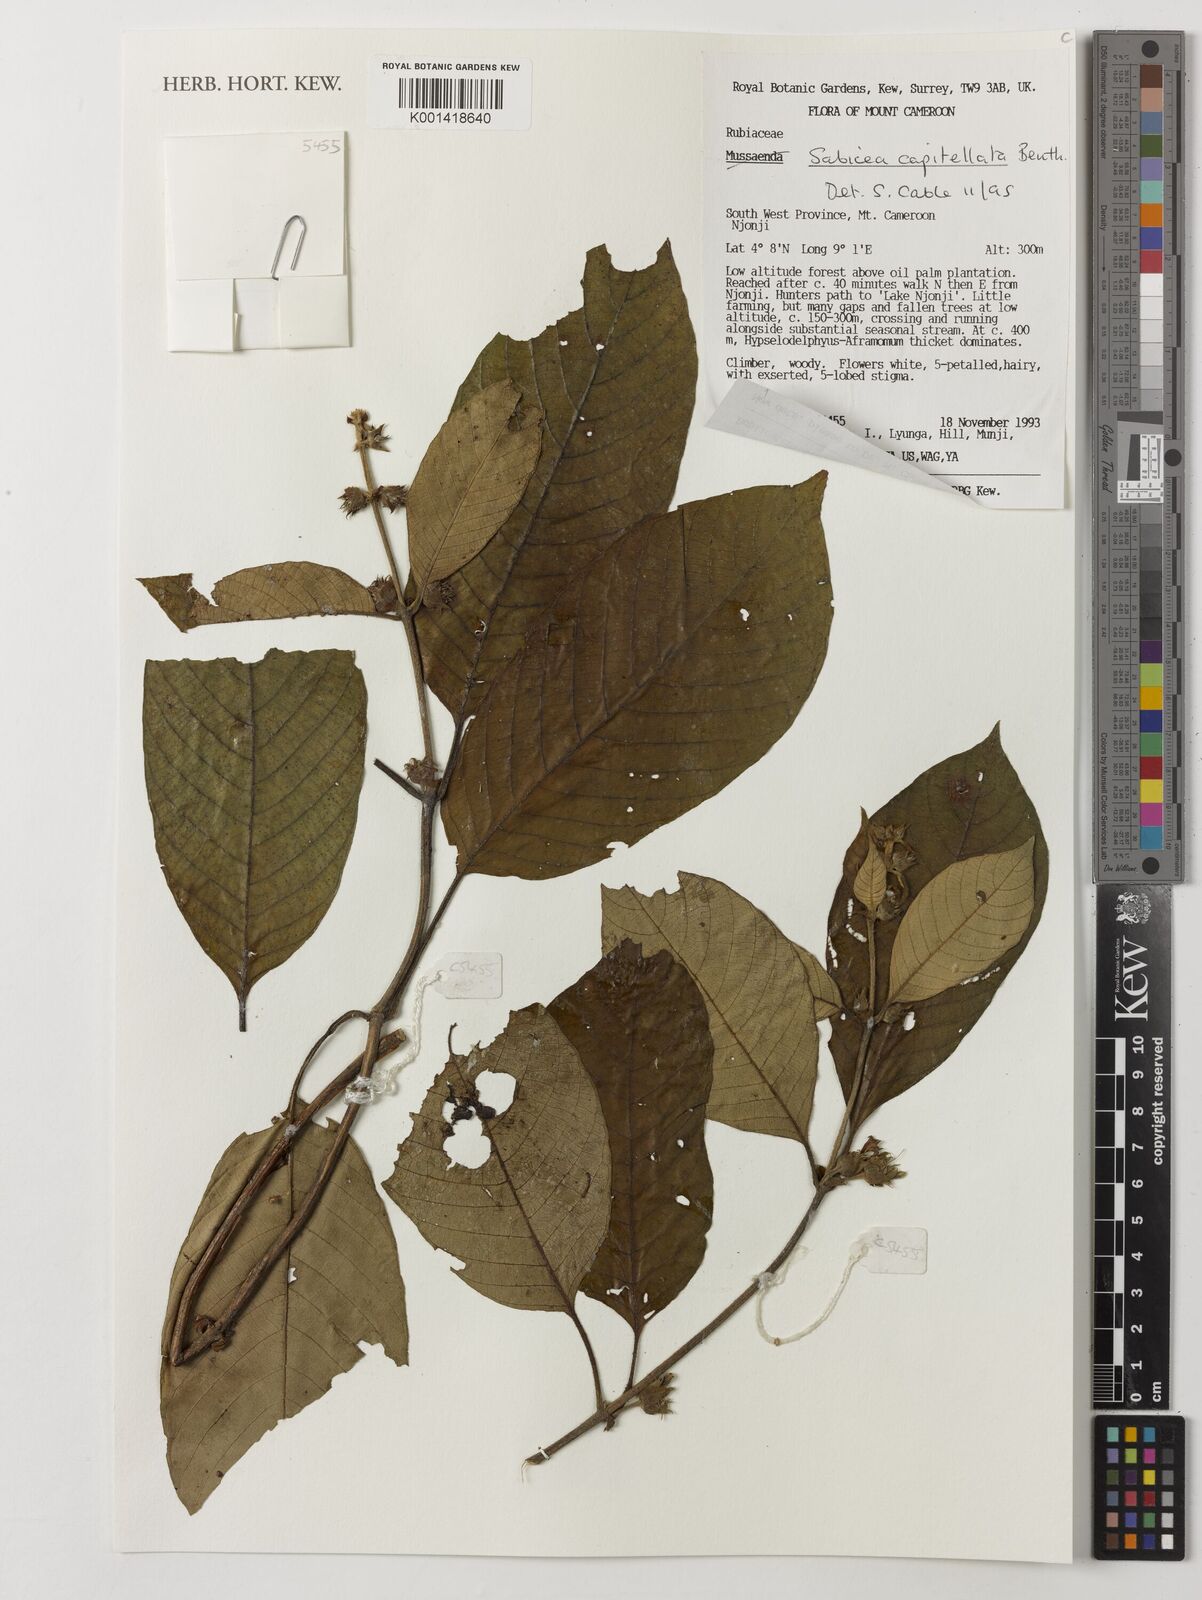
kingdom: Plantae
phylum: Tracheophyta
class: Magnoliopsida
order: Gentianales
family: Rubiaceae
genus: Sabicea
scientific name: Sabicea capitellata
